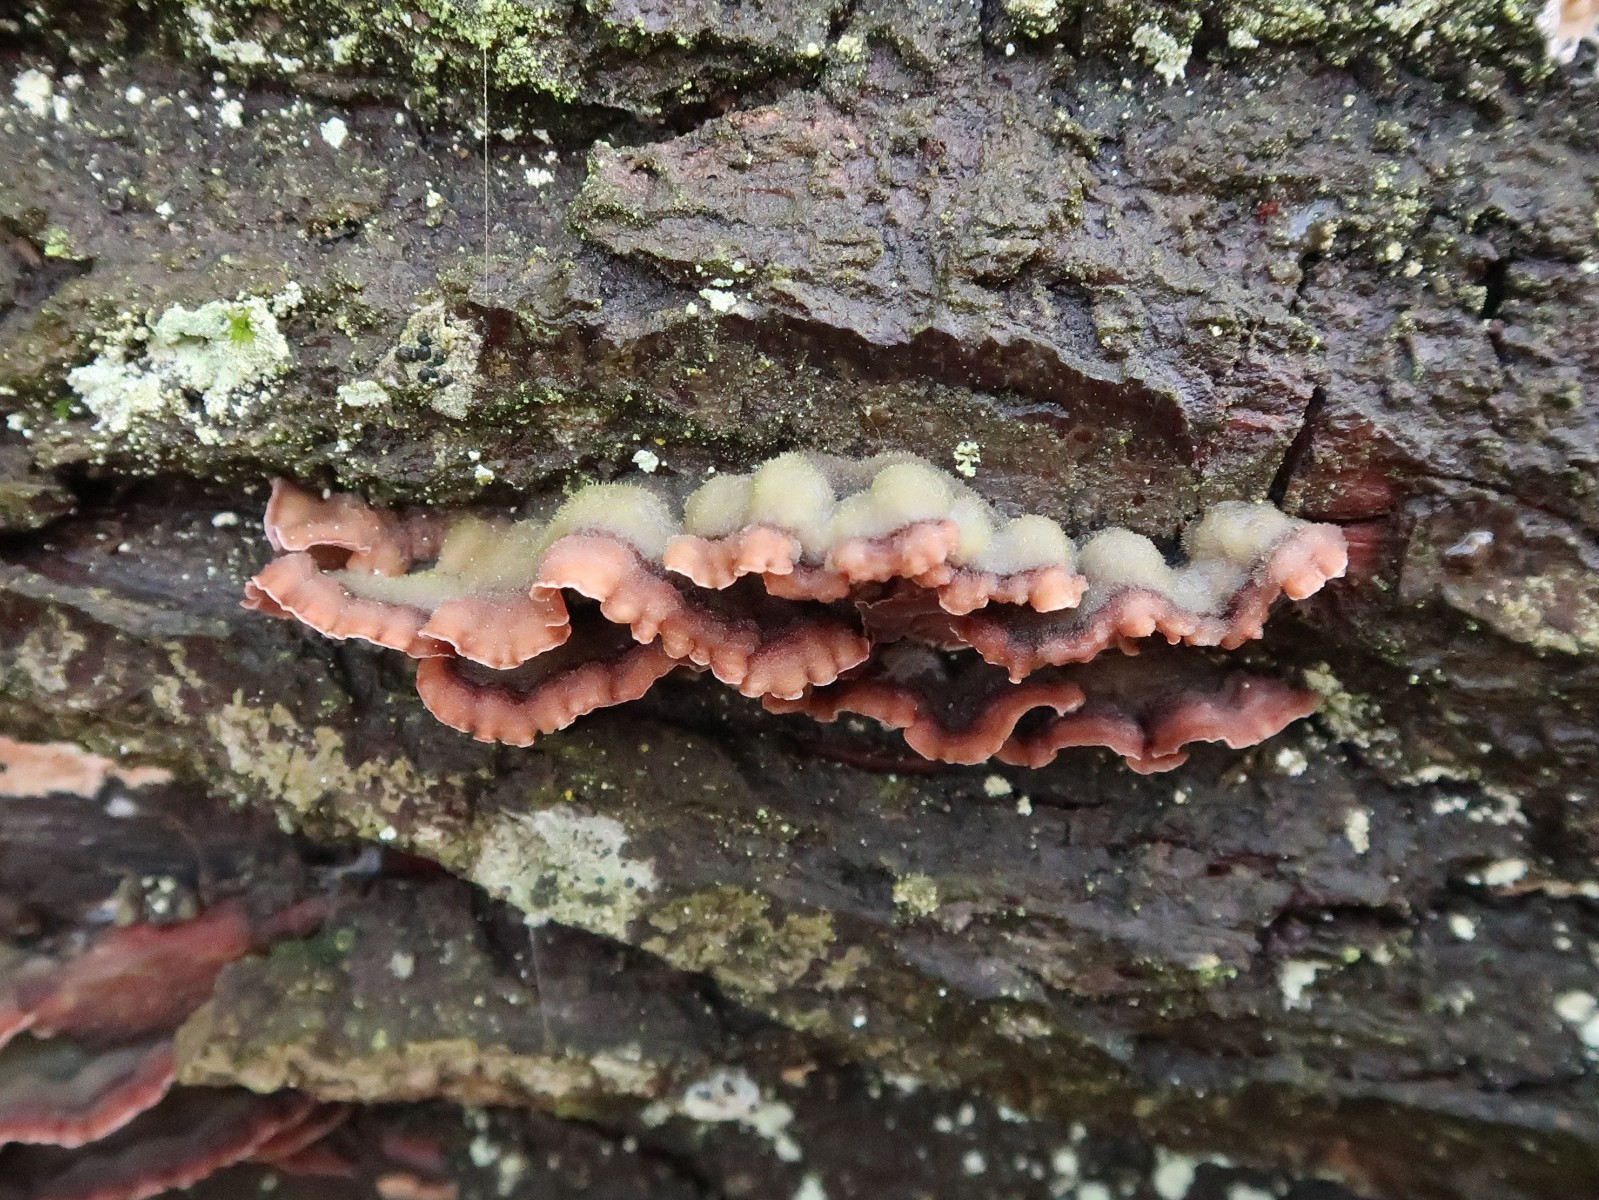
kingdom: Fungi
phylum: Basidiomycota
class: Agaricomycetes
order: Agaricales
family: Cyphellaceae
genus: Chondrostereum
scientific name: Chondrostereum purpureum
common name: purpurlædersvamp
